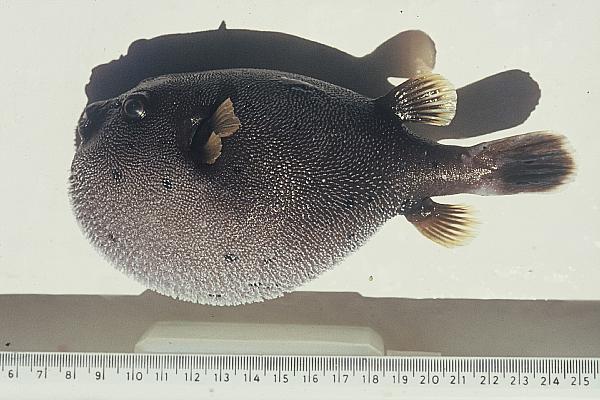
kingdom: Animalia
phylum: Chordata
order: Tetraodontiformes
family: Tetraodontidae
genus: Arothron
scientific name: Arothron nigropunctatus
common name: Black spotted blow fish
